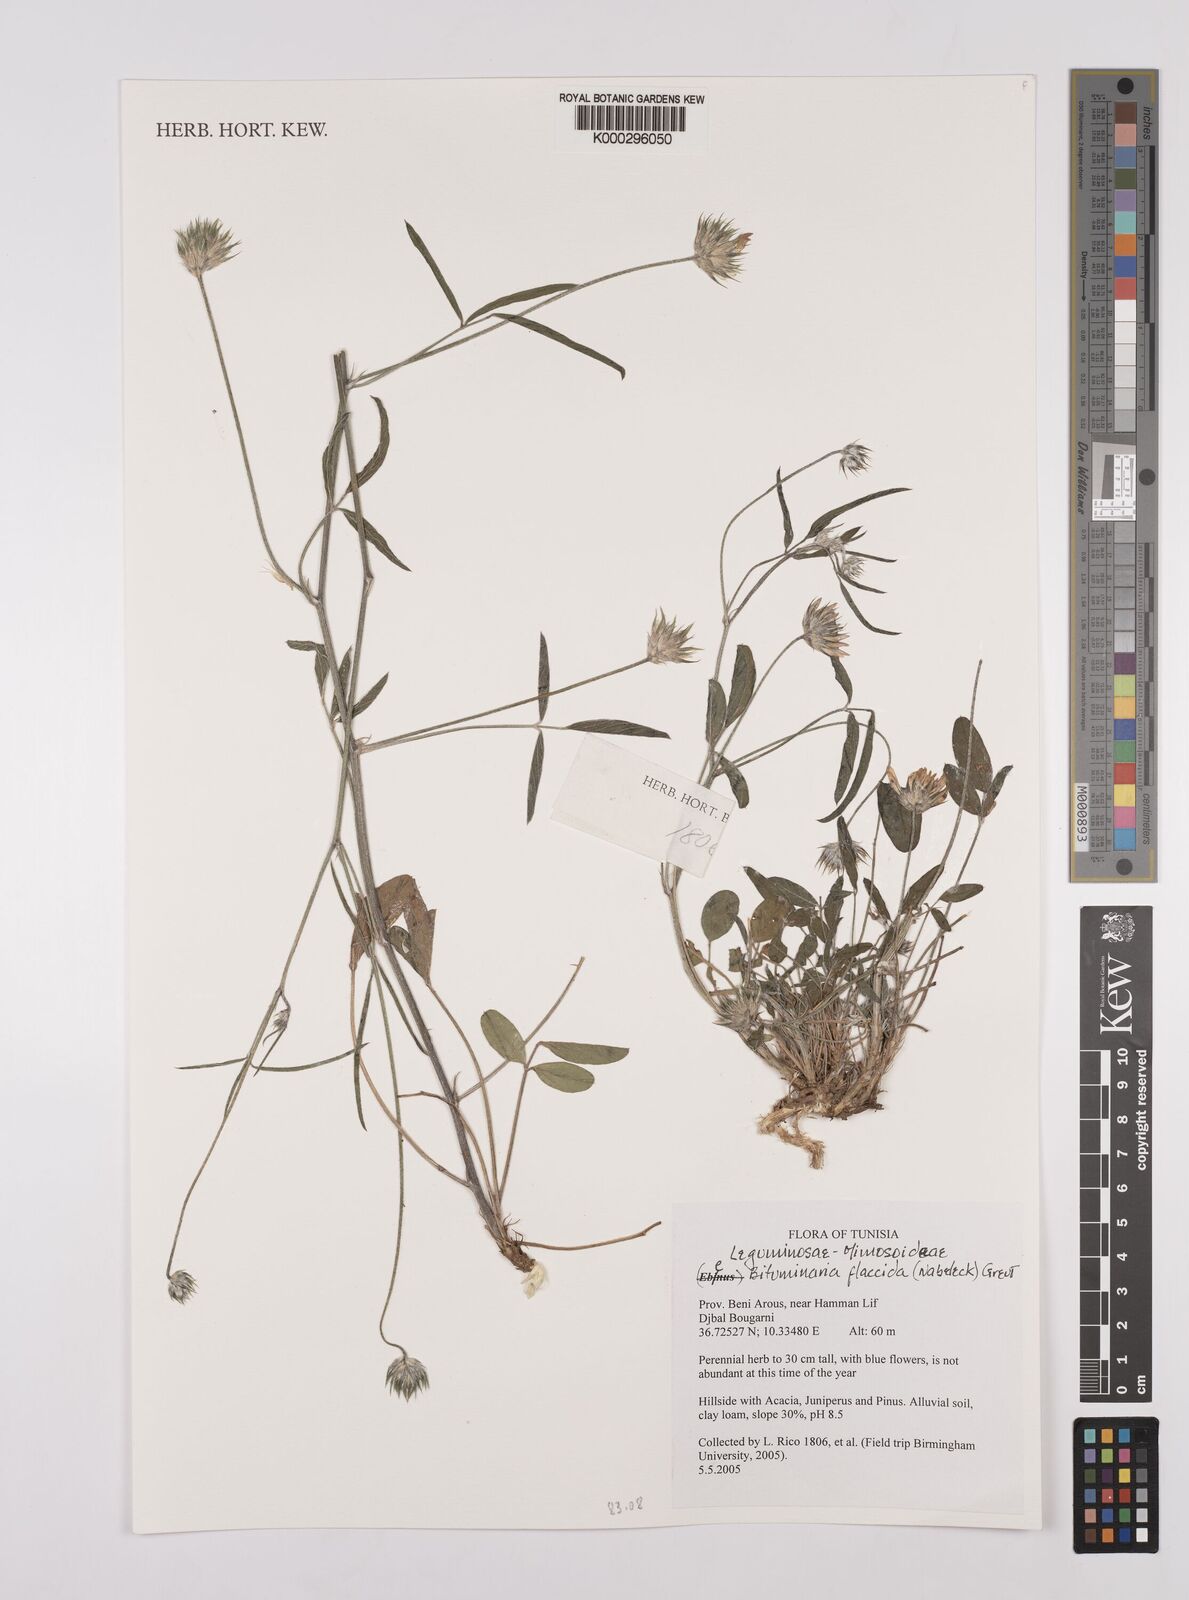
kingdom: Plantae
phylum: Tracheophyta
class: Magnoliopsida
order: Fabales
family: Fabaceae
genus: Bituminaria
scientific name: Bituminaria flaccida
